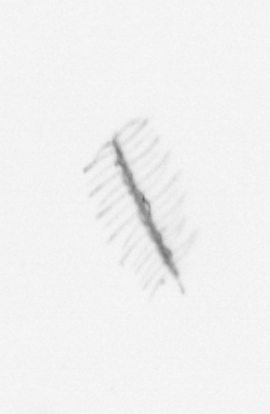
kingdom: Chromista
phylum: Ochrophyta
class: Bacillariophyceae
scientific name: Bacillariophyceae
